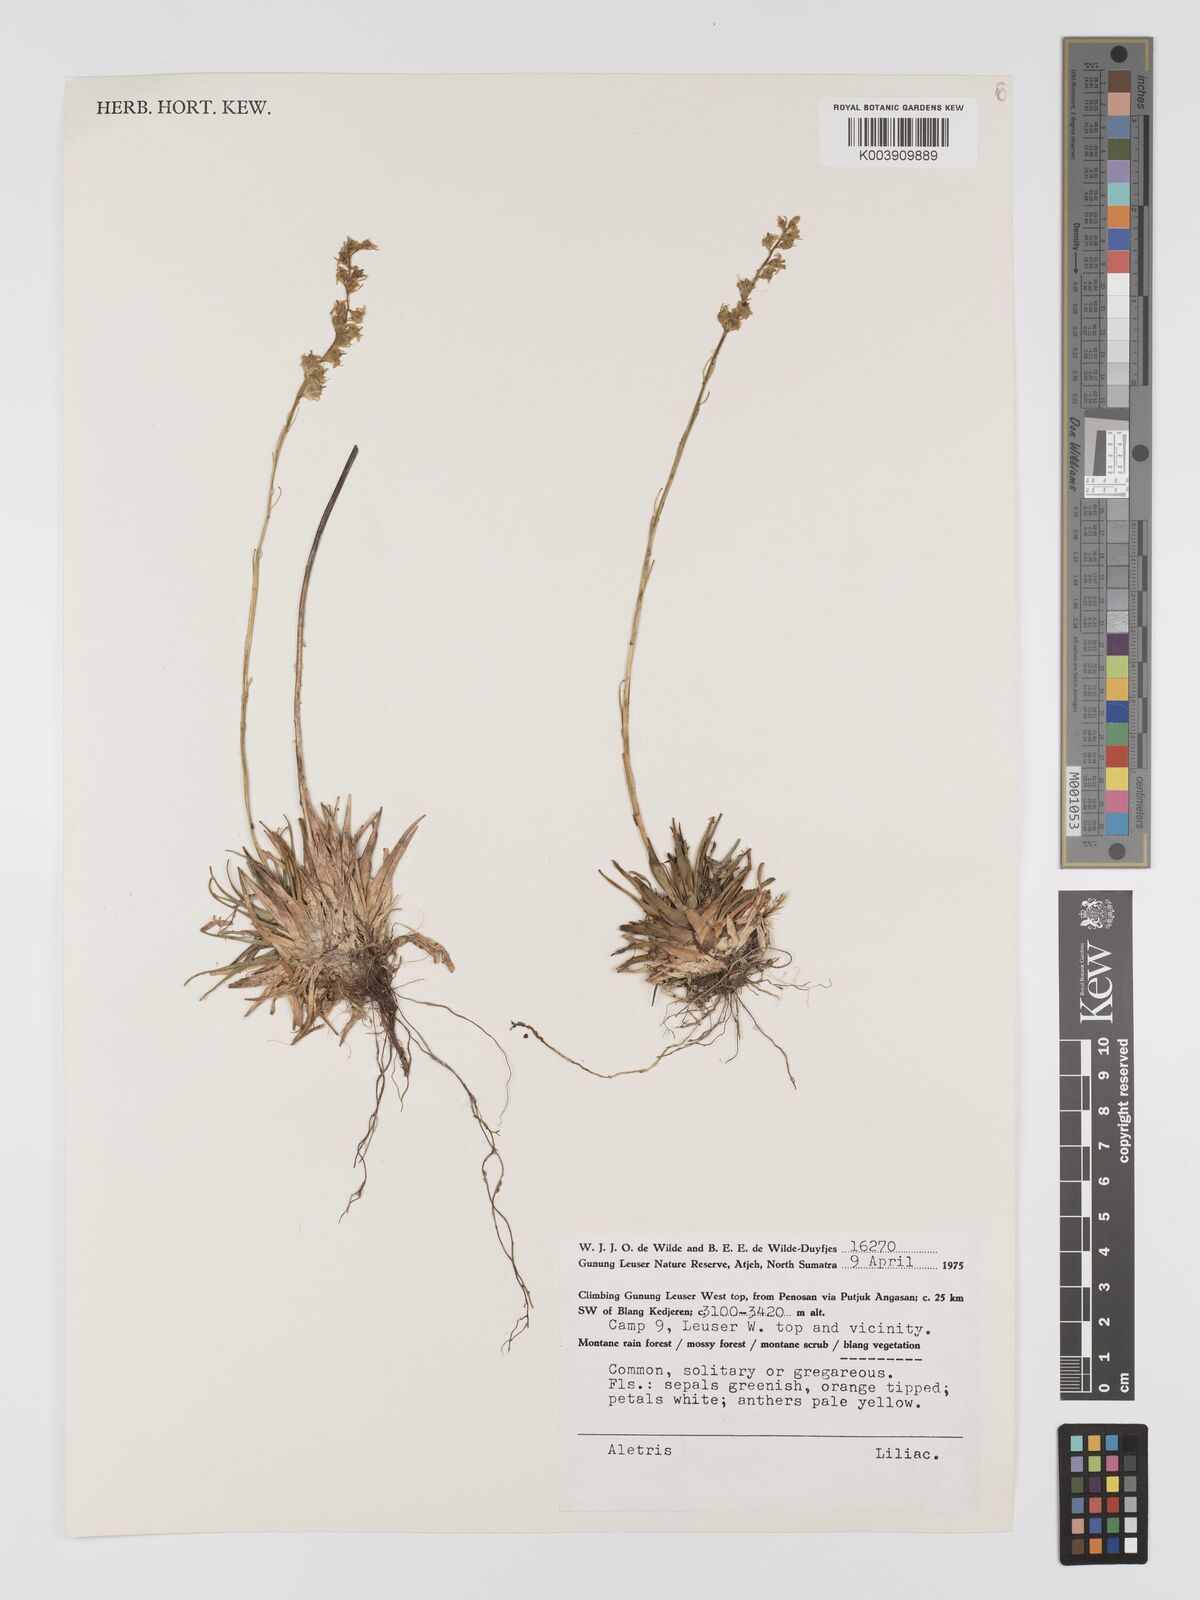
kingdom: Plantae
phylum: Tracheophyta
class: Liliopsida
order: Dioscoreales
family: Nartheciaceae
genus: Aletris
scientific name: Aletris
